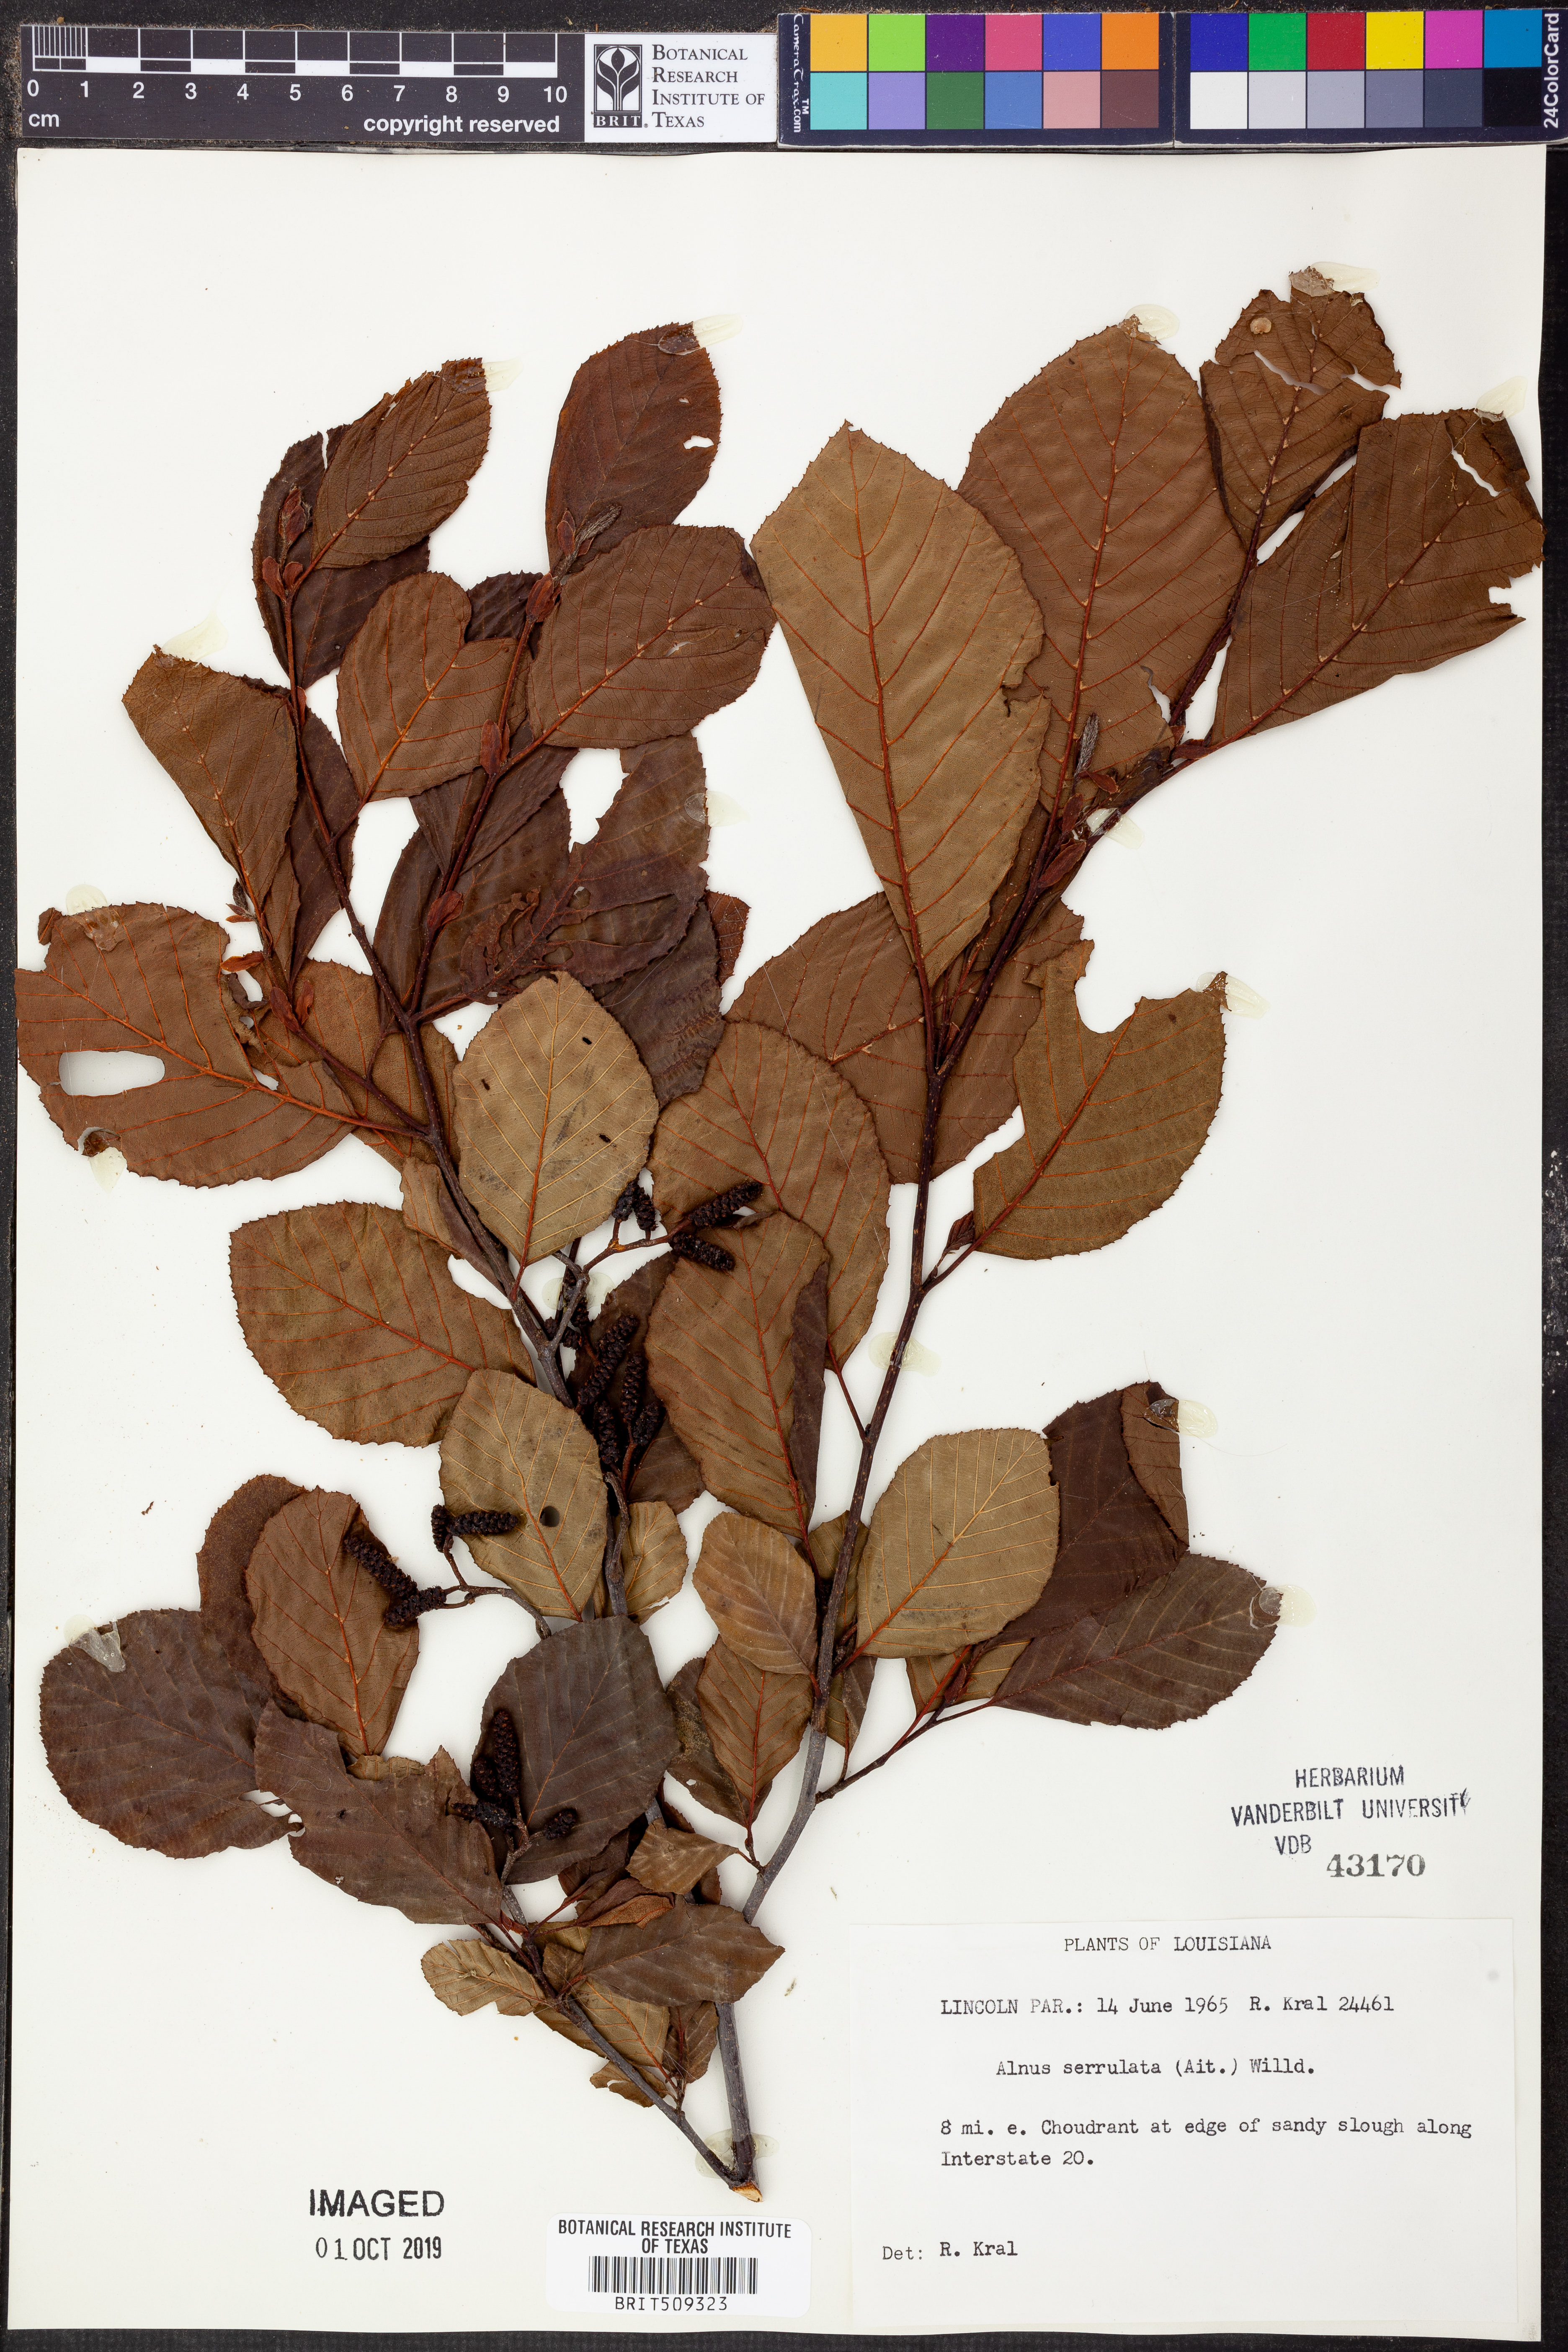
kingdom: Plantae
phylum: Tracheophyta
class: Magnoliopsida
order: Fagales
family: Betulaceae
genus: Alnus
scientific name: Alnus serrulata
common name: Hazel alder
